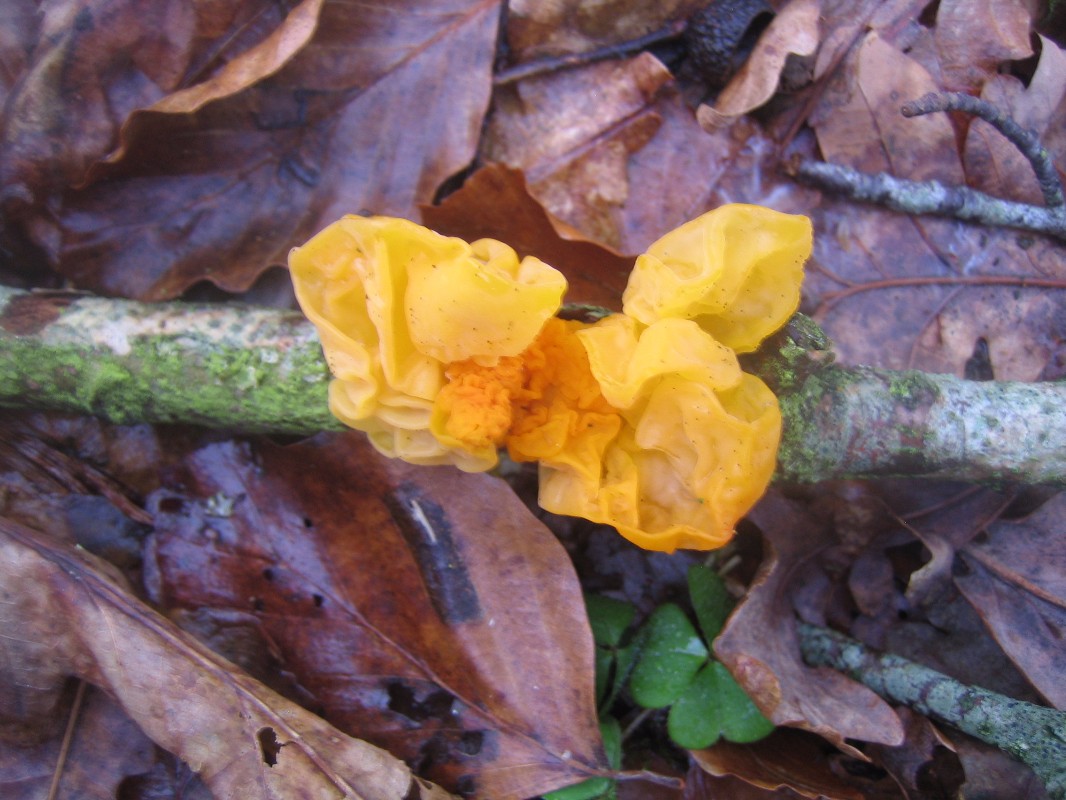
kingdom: Fungi
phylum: Basidiomycota
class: Tremellomycetes
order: Tremellales
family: Tremellaceae
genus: Tremella
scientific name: Tremella mesenterica
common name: gul bævresvamp
